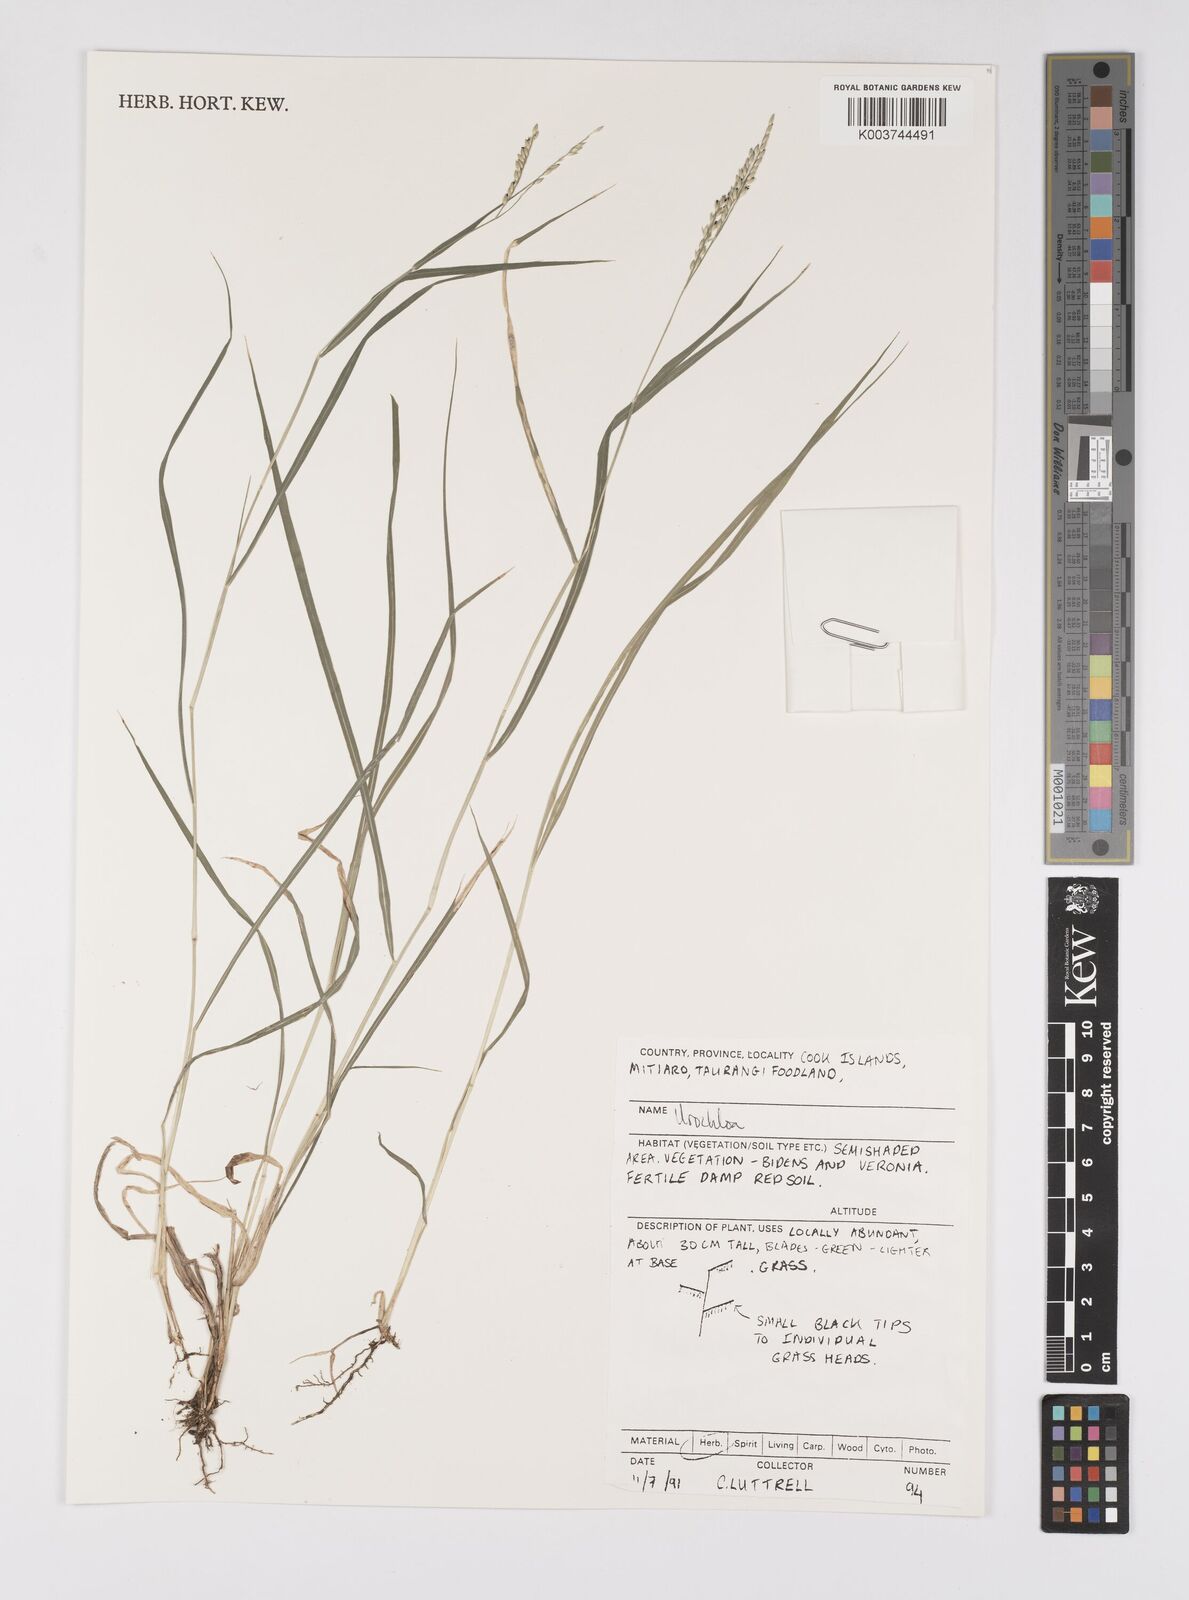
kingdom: Plantae
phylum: Tracheophyta
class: Liliopsida
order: Poales
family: Poaceae
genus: Urochloa
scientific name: Urochloa glumaris
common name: Thurston grass
